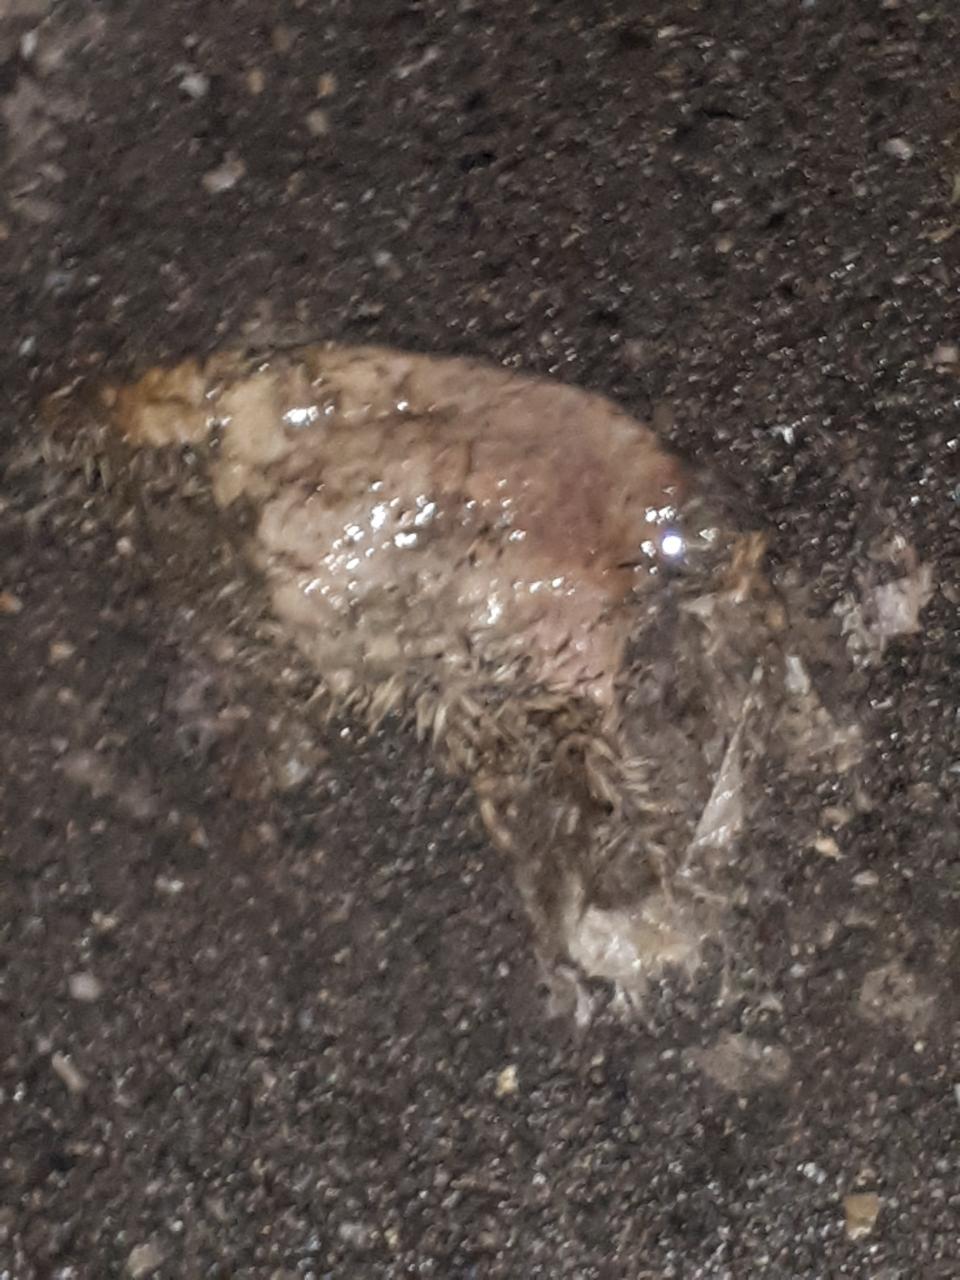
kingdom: Animalia
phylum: Chordata
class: Mammalia
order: Erinaceomorpha
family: Erinaceidae
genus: Erinaceus
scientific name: Erinaceus
